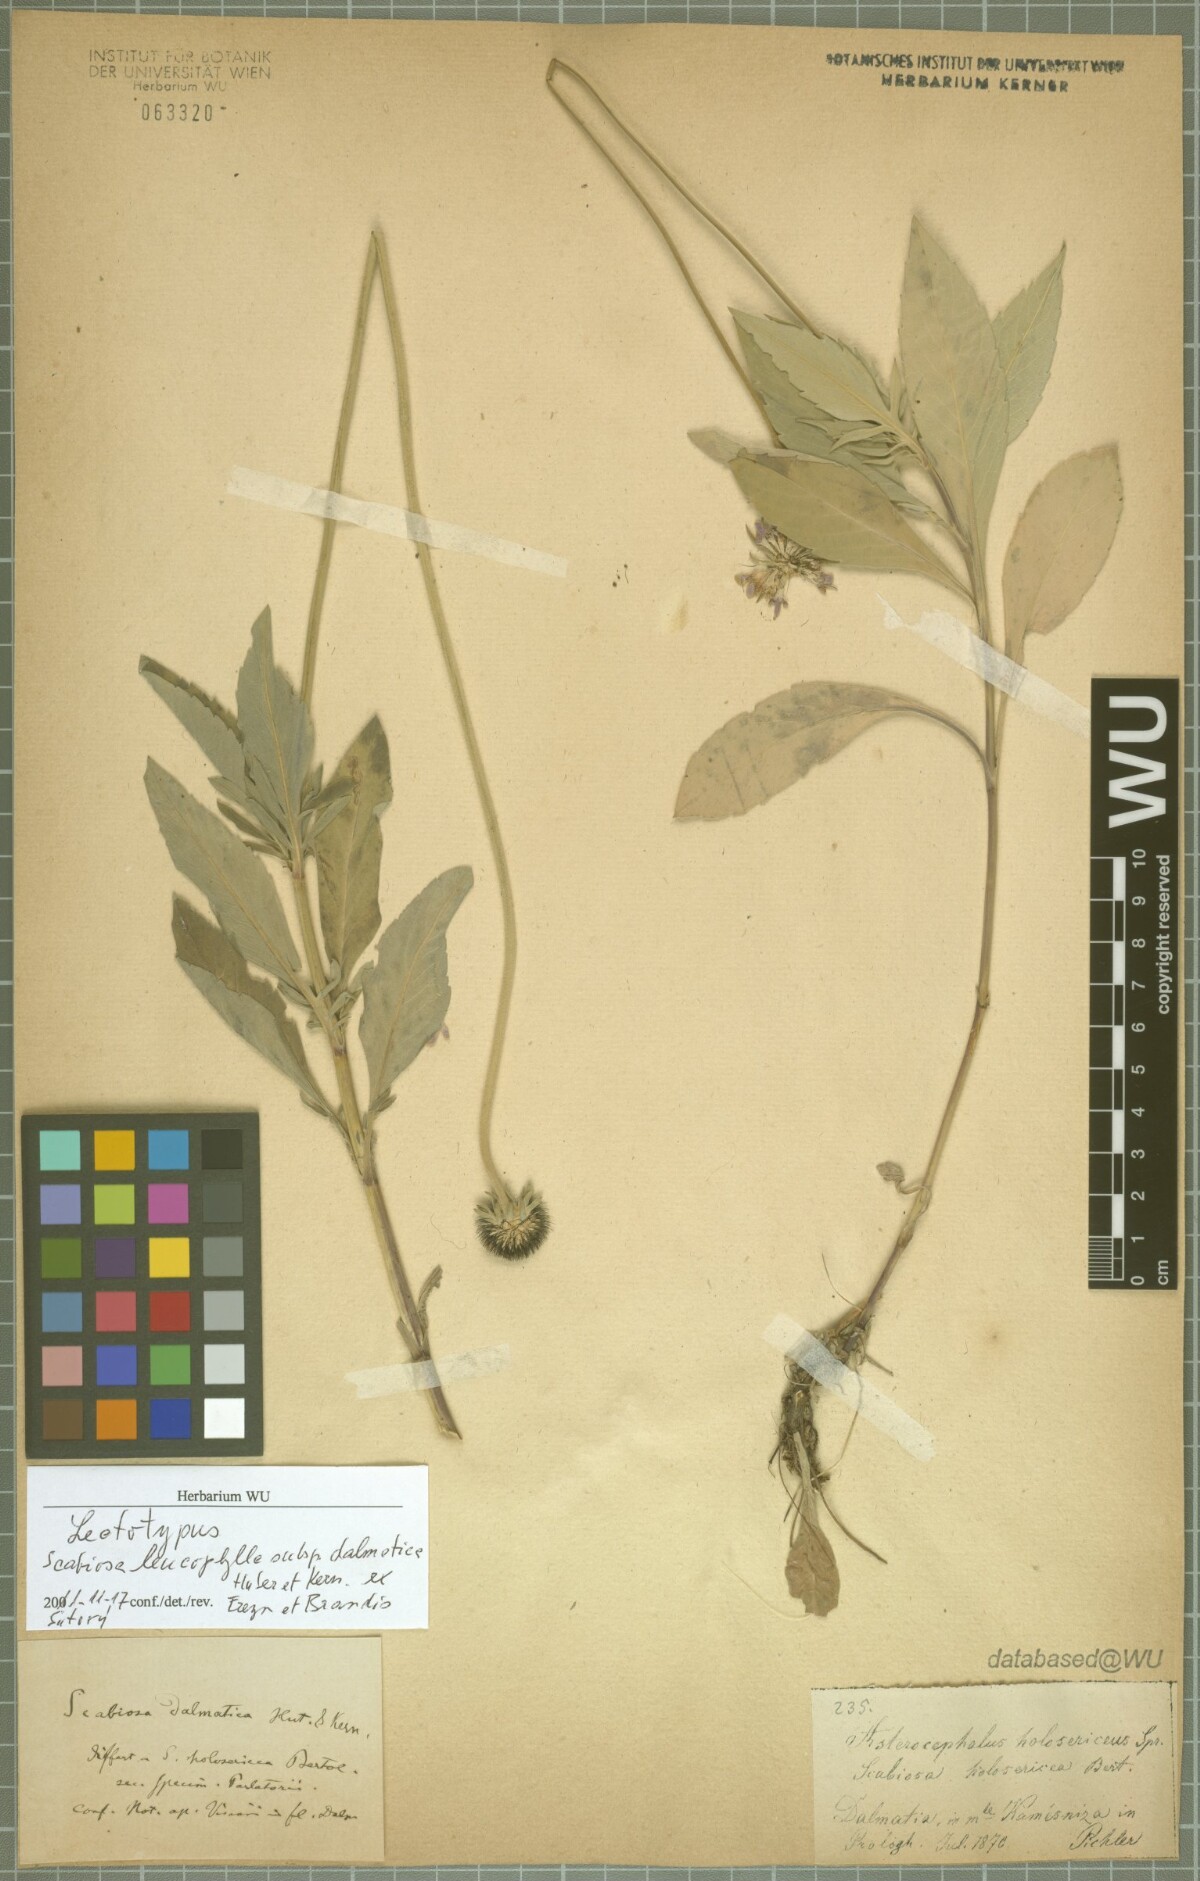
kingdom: Plantae
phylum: Tracheophyta
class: Magnoliopsida
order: Dipsacales
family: Caprifoliaceae
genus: Scabiosa
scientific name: Scabiosa cinerea
